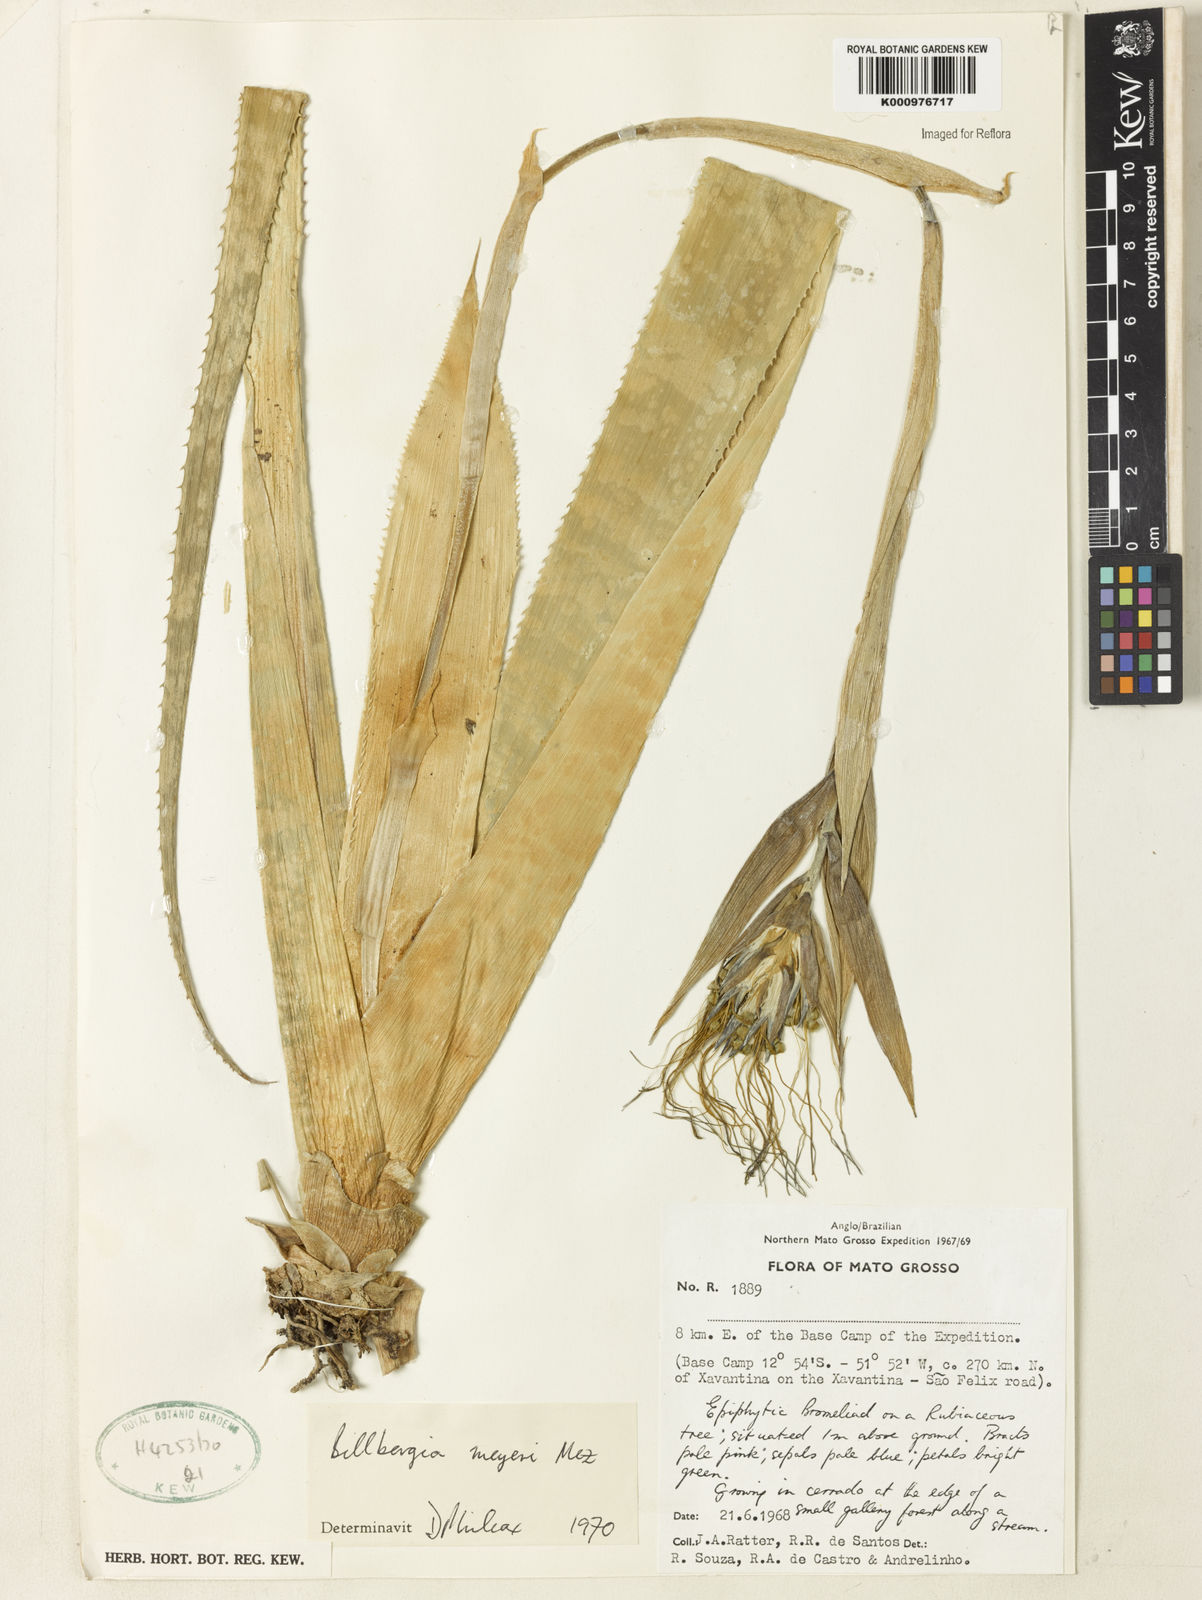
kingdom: Plantae
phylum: Tracheophyta
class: Liliopsida
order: Poales
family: Bromeliaceae
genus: Billbergia
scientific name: Billbergia meyeri
